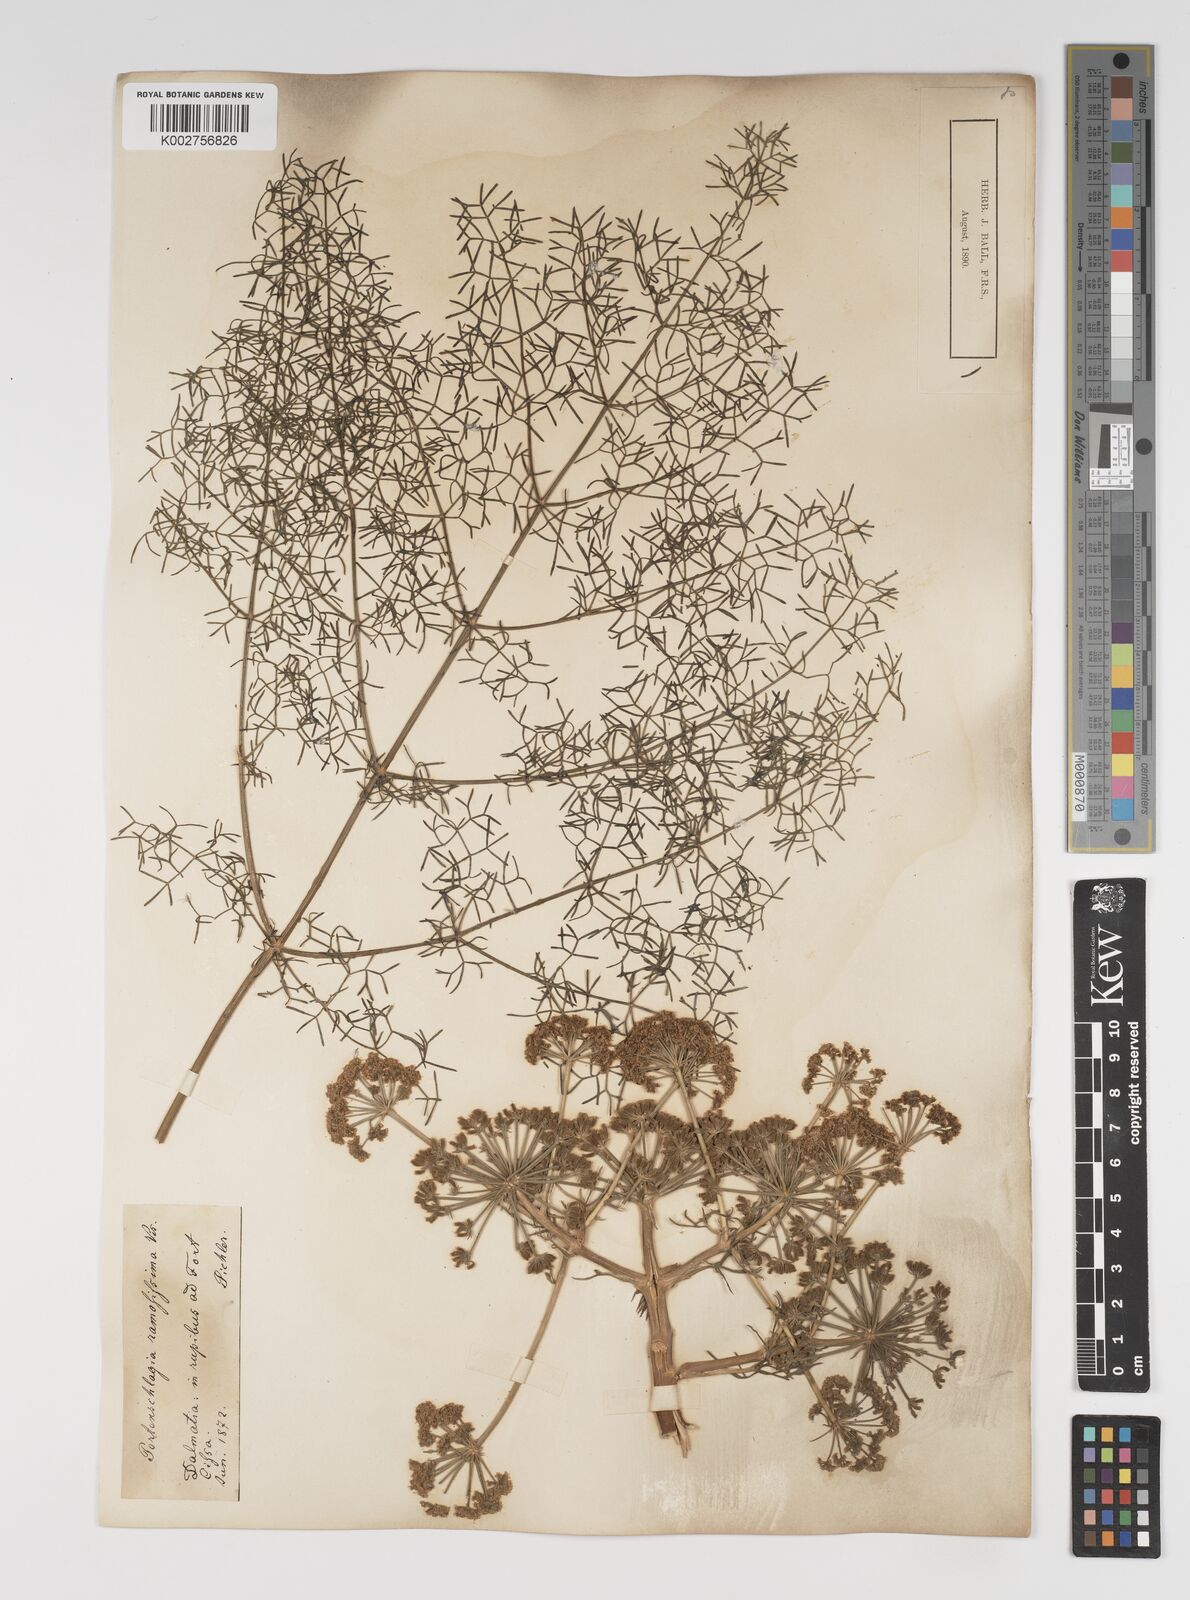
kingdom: Plantae
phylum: Tracheophyta
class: Magnoliopsida
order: Apiales
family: Apiaceae
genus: Athamanta
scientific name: Athamanta ramosissima
